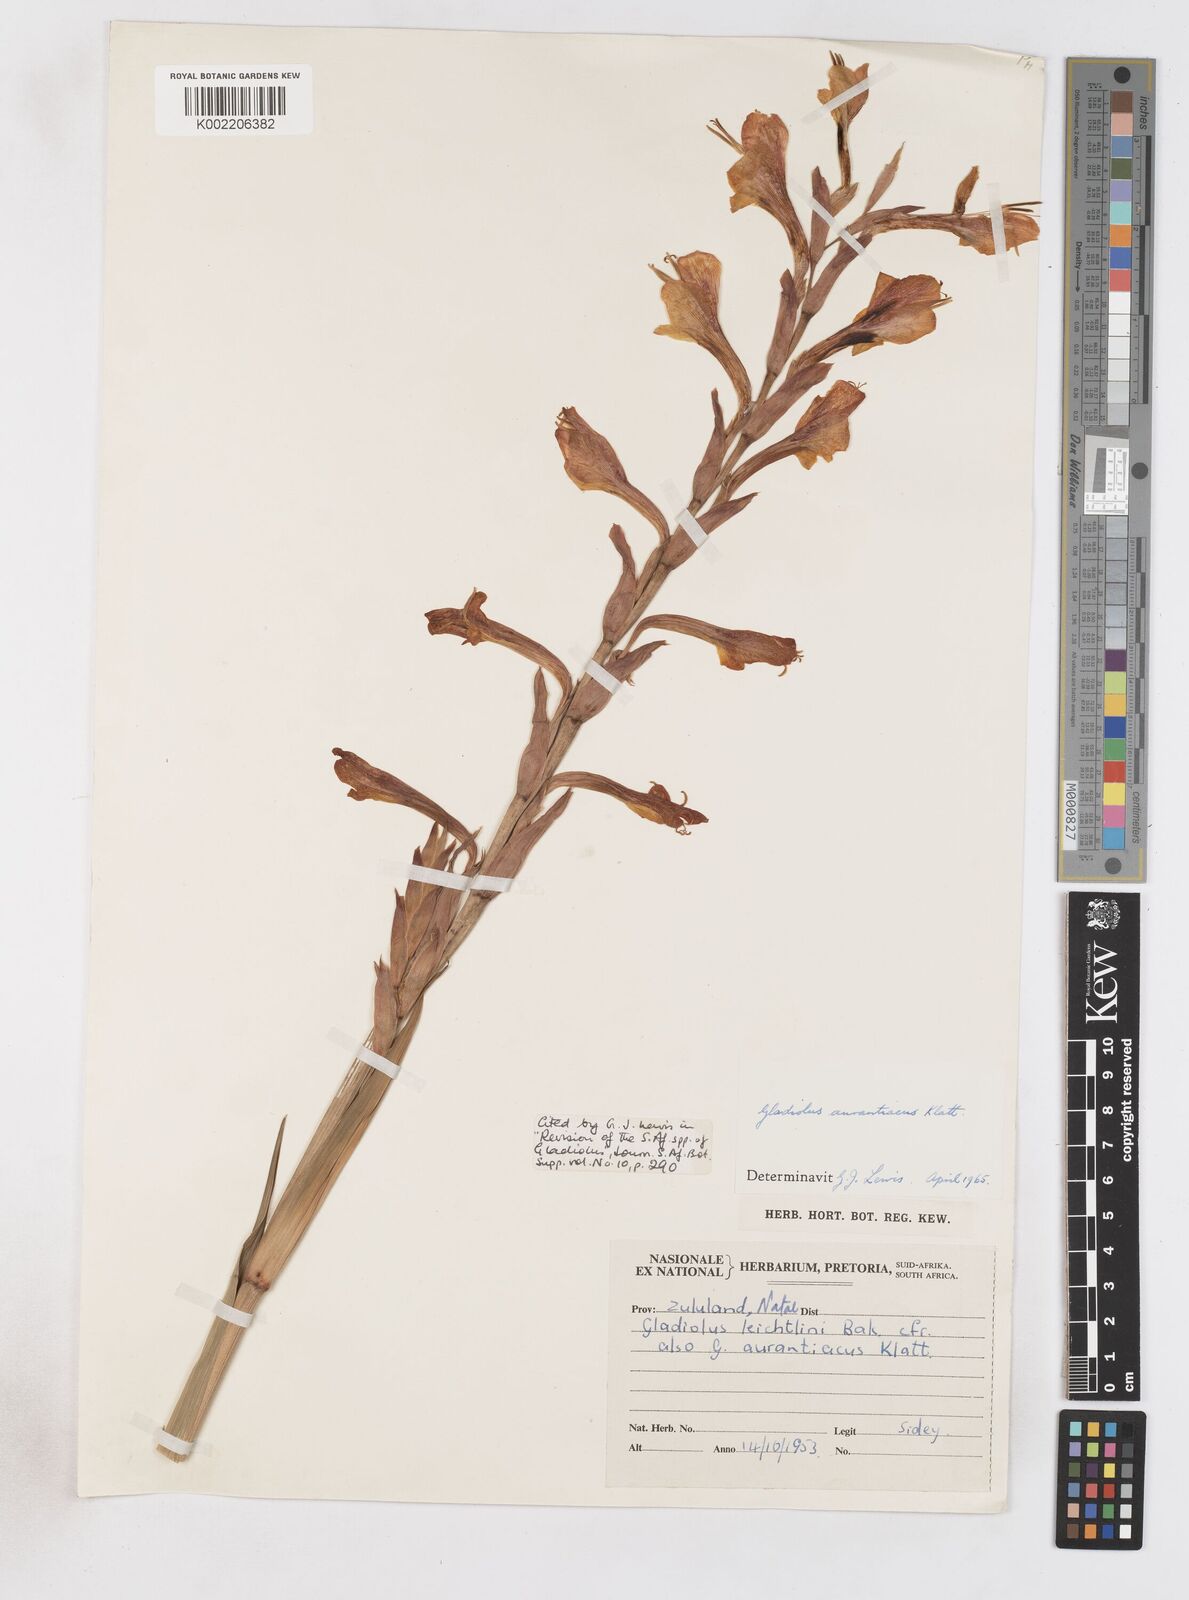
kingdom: Plantae
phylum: Tracheophyta
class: Liliopsida
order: Asparagales
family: Iridaceae
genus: Gladiolus
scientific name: Gladiolus aurantiacus
